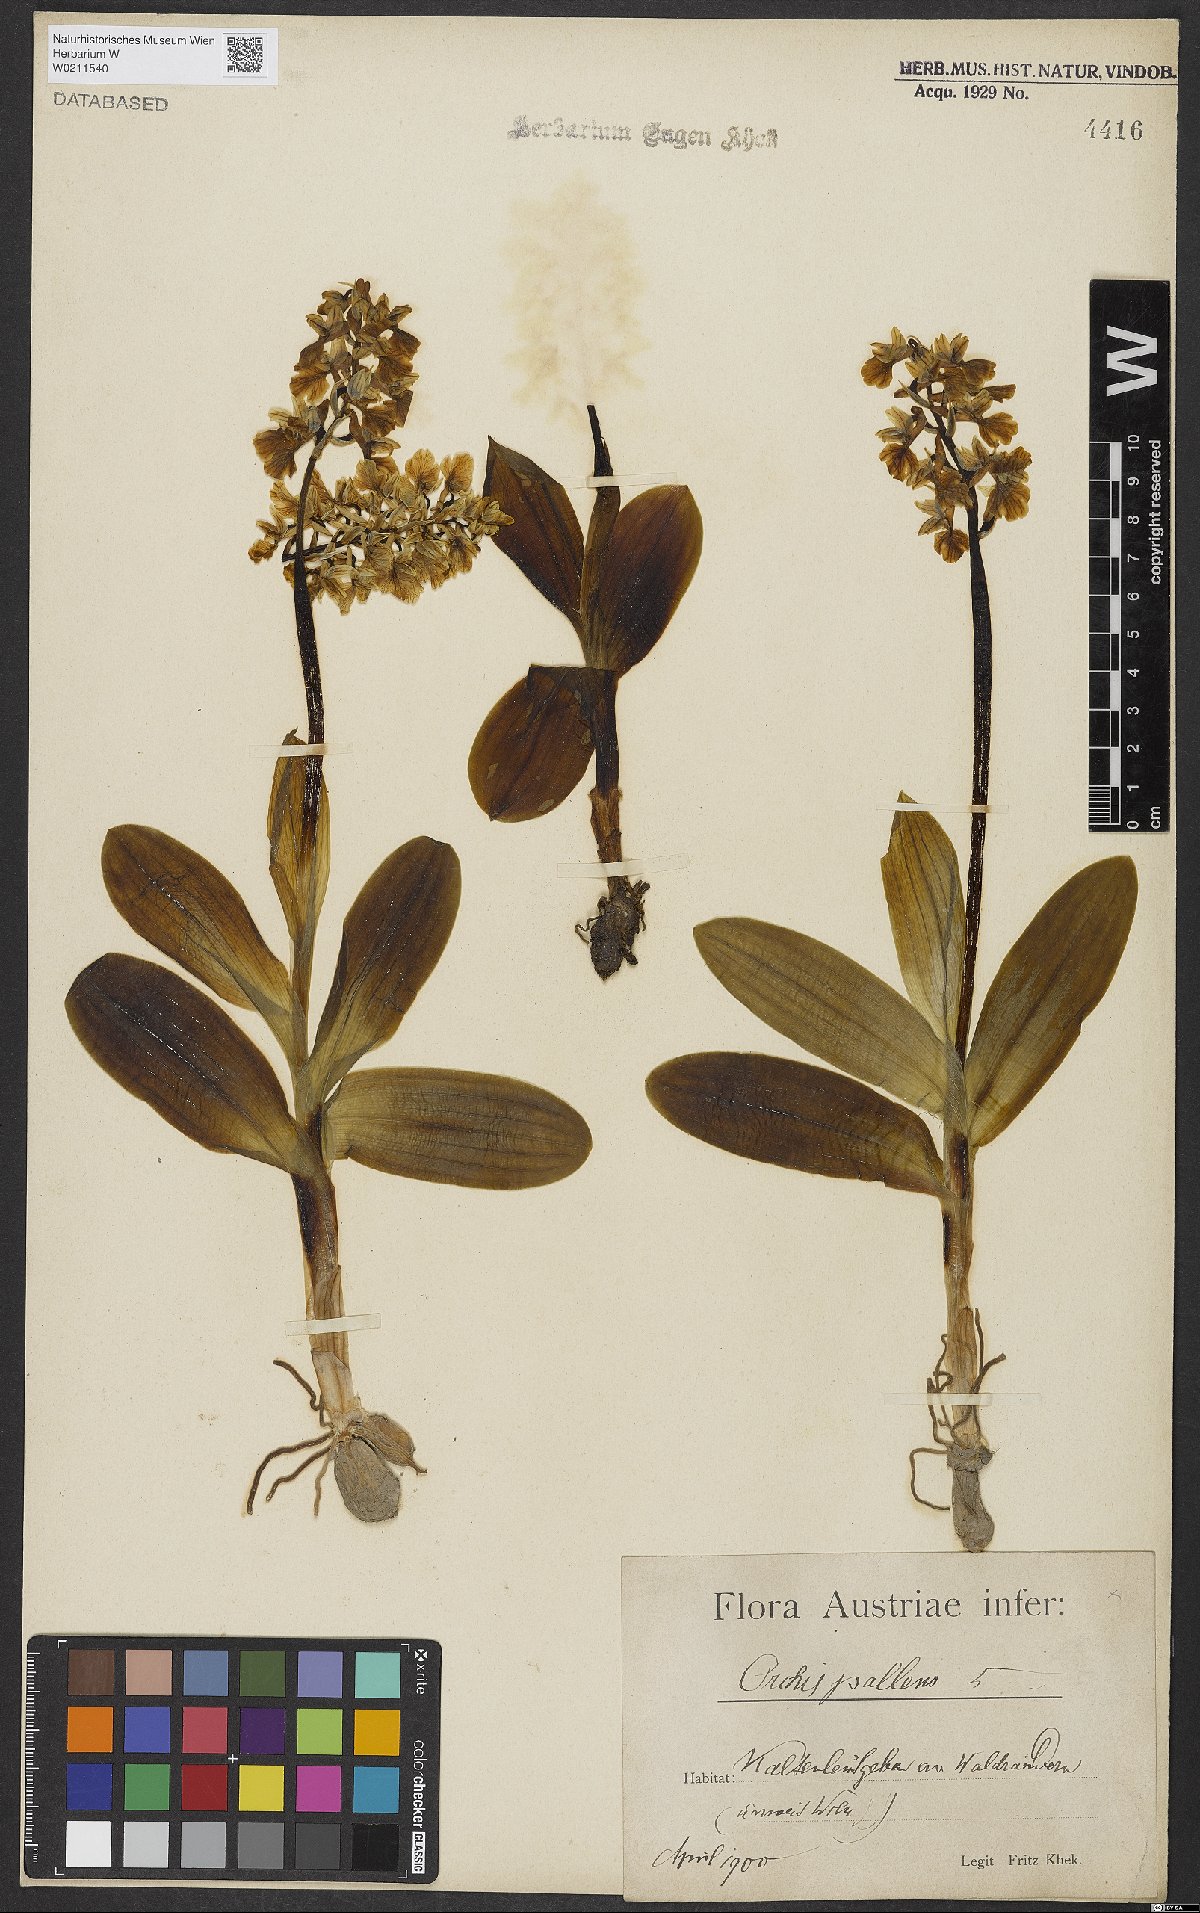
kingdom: Plantae
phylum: Tracheophyta
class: Liliopsida
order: Asparagales
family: Orchidaceae
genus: Orchis
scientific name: Orchis pallens
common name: Pale-flowered orchid
